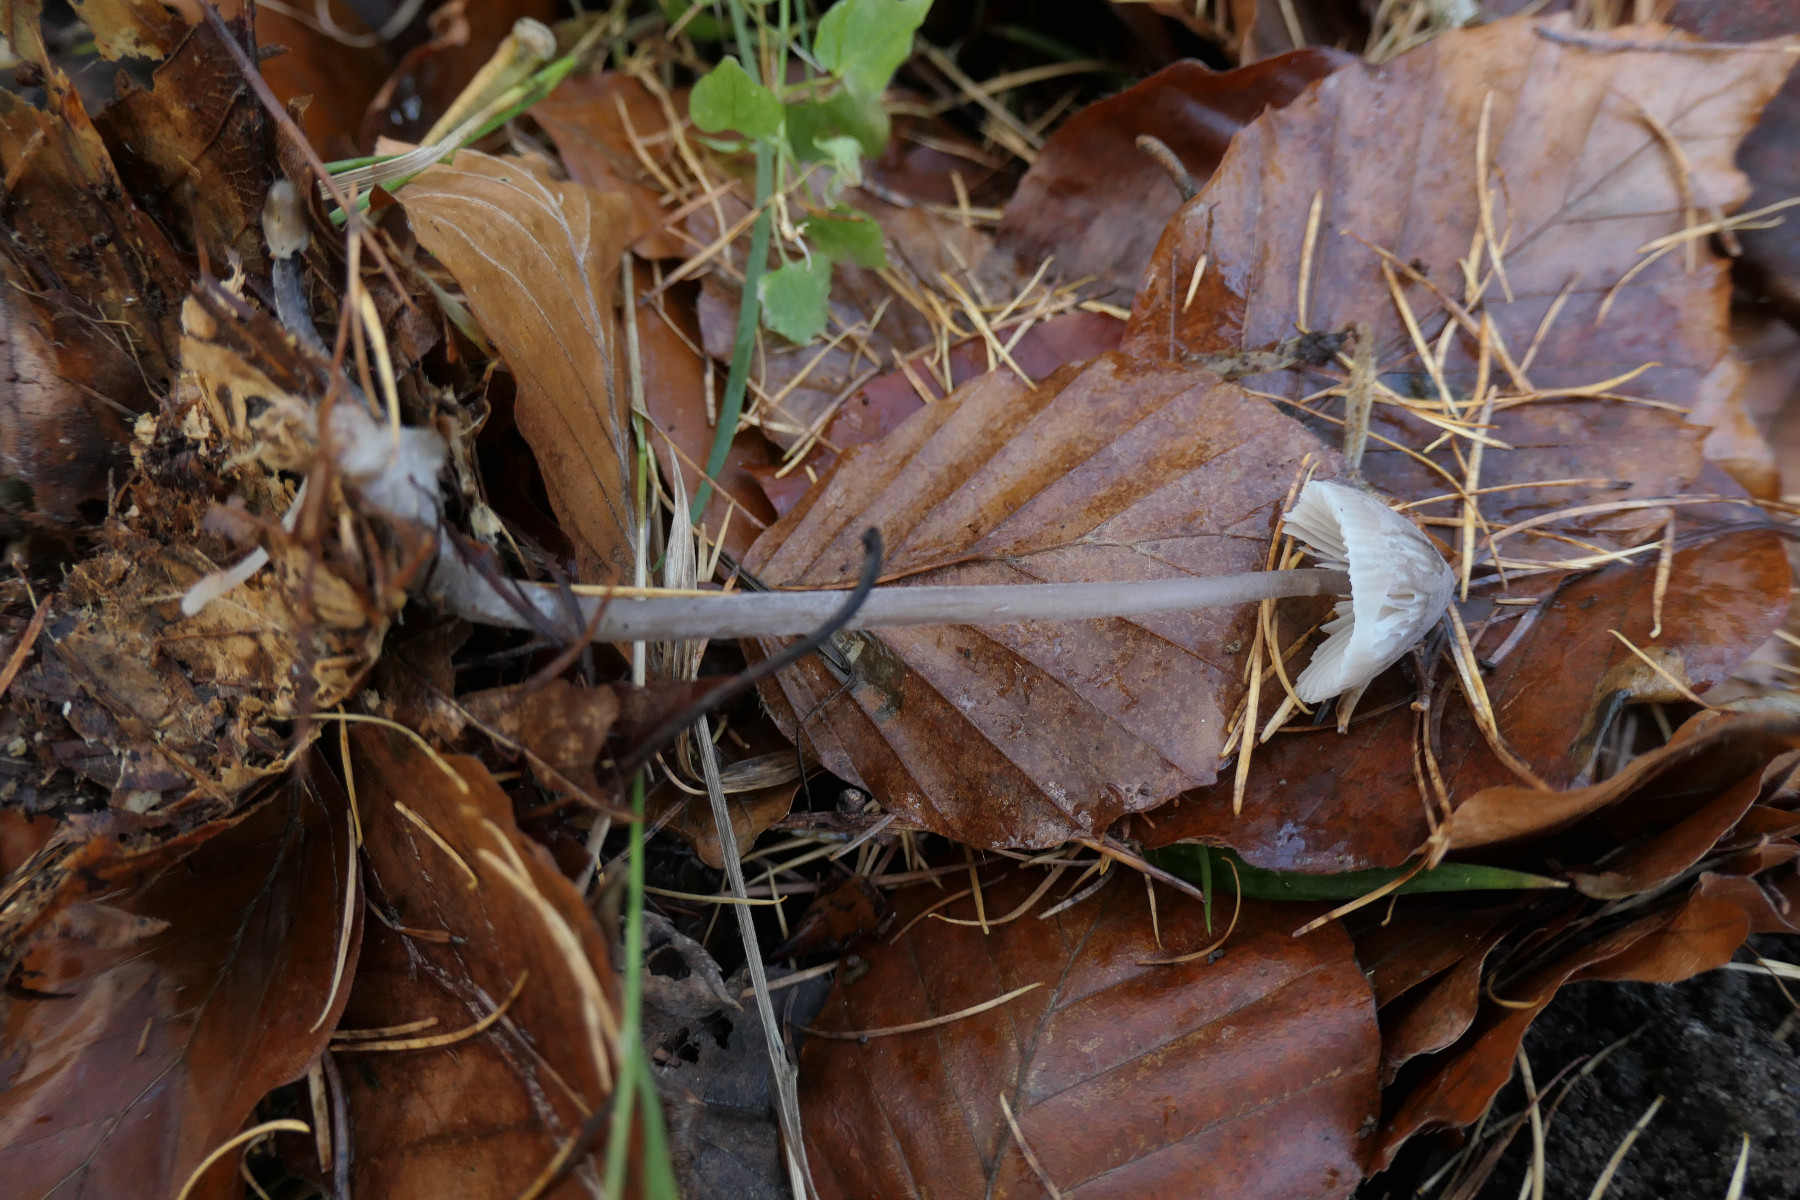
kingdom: Fungi
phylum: Basidiomycota
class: Agaricomycetes
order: Agaricales
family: Mycenaceae
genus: Mycena
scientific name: Mycena leptocephala
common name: klor-huesvamp
